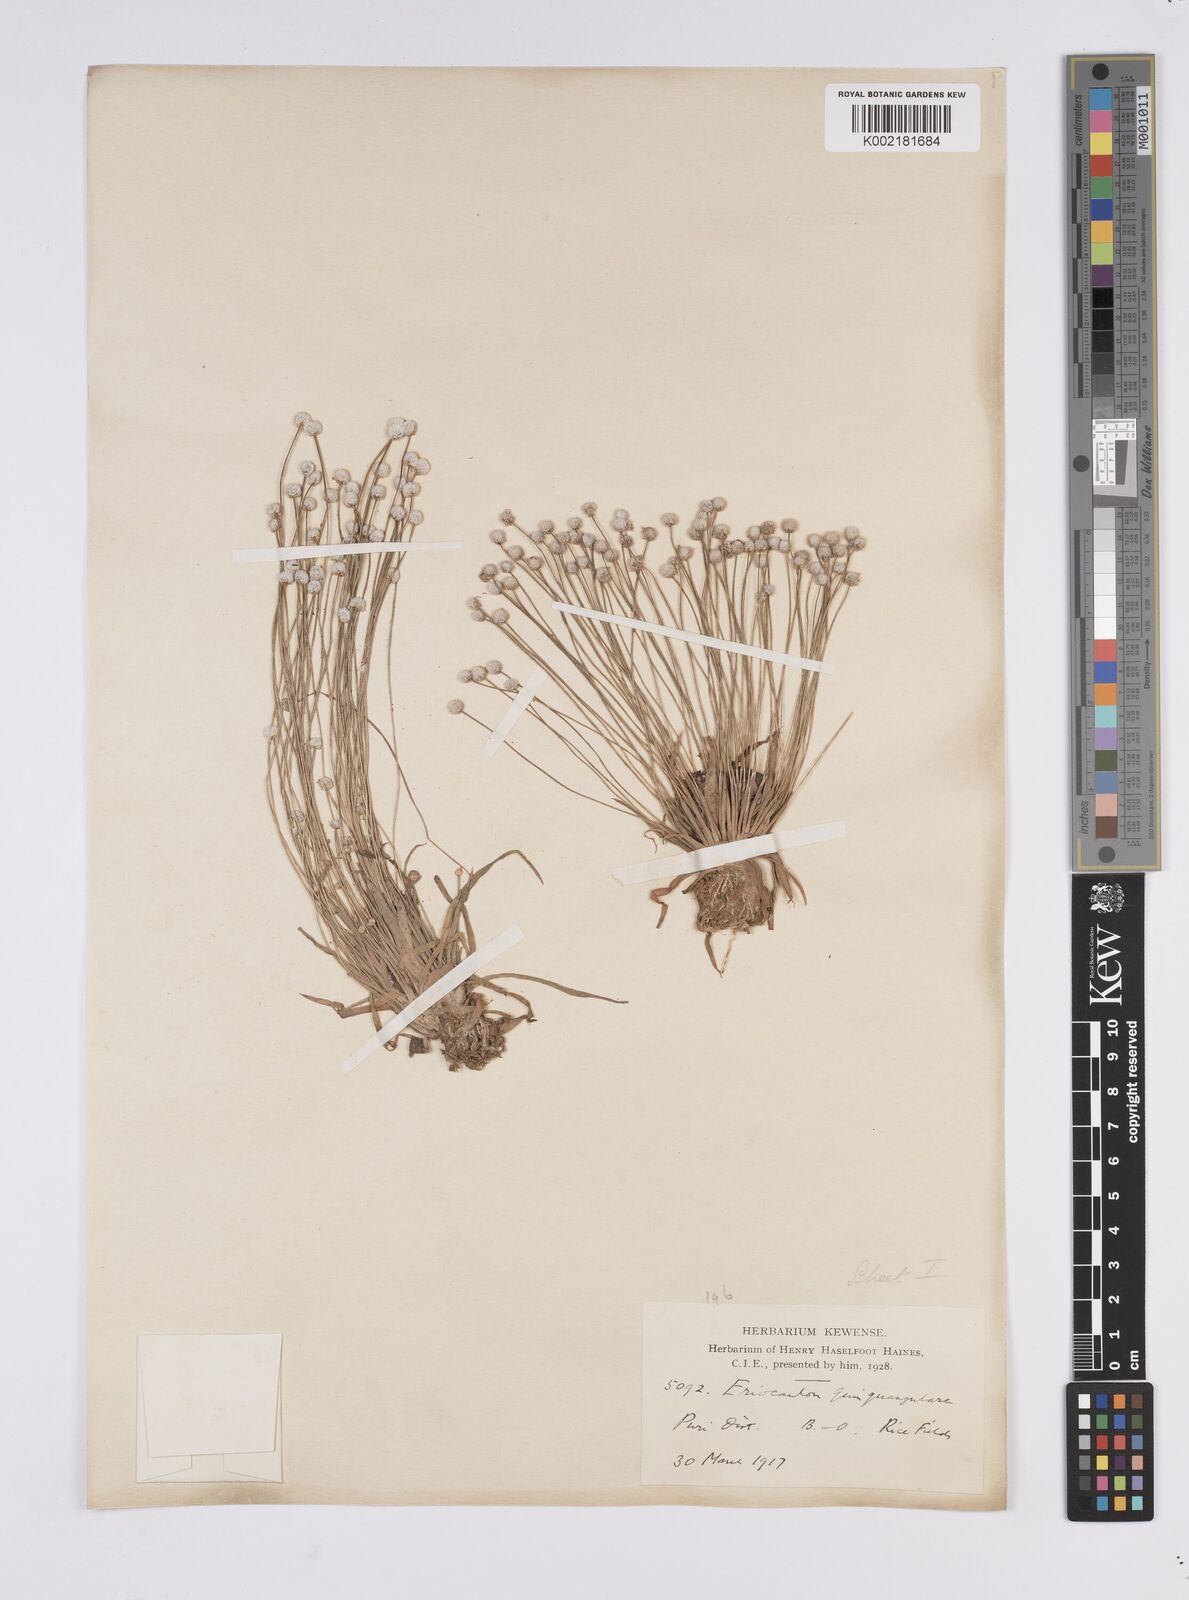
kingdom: Plantae
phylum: Tracheophyta
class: Liliopsida
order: Poales
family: Eriocaulaceae
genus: Eriocaulon
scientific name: Eriocaulon quinquangulare
